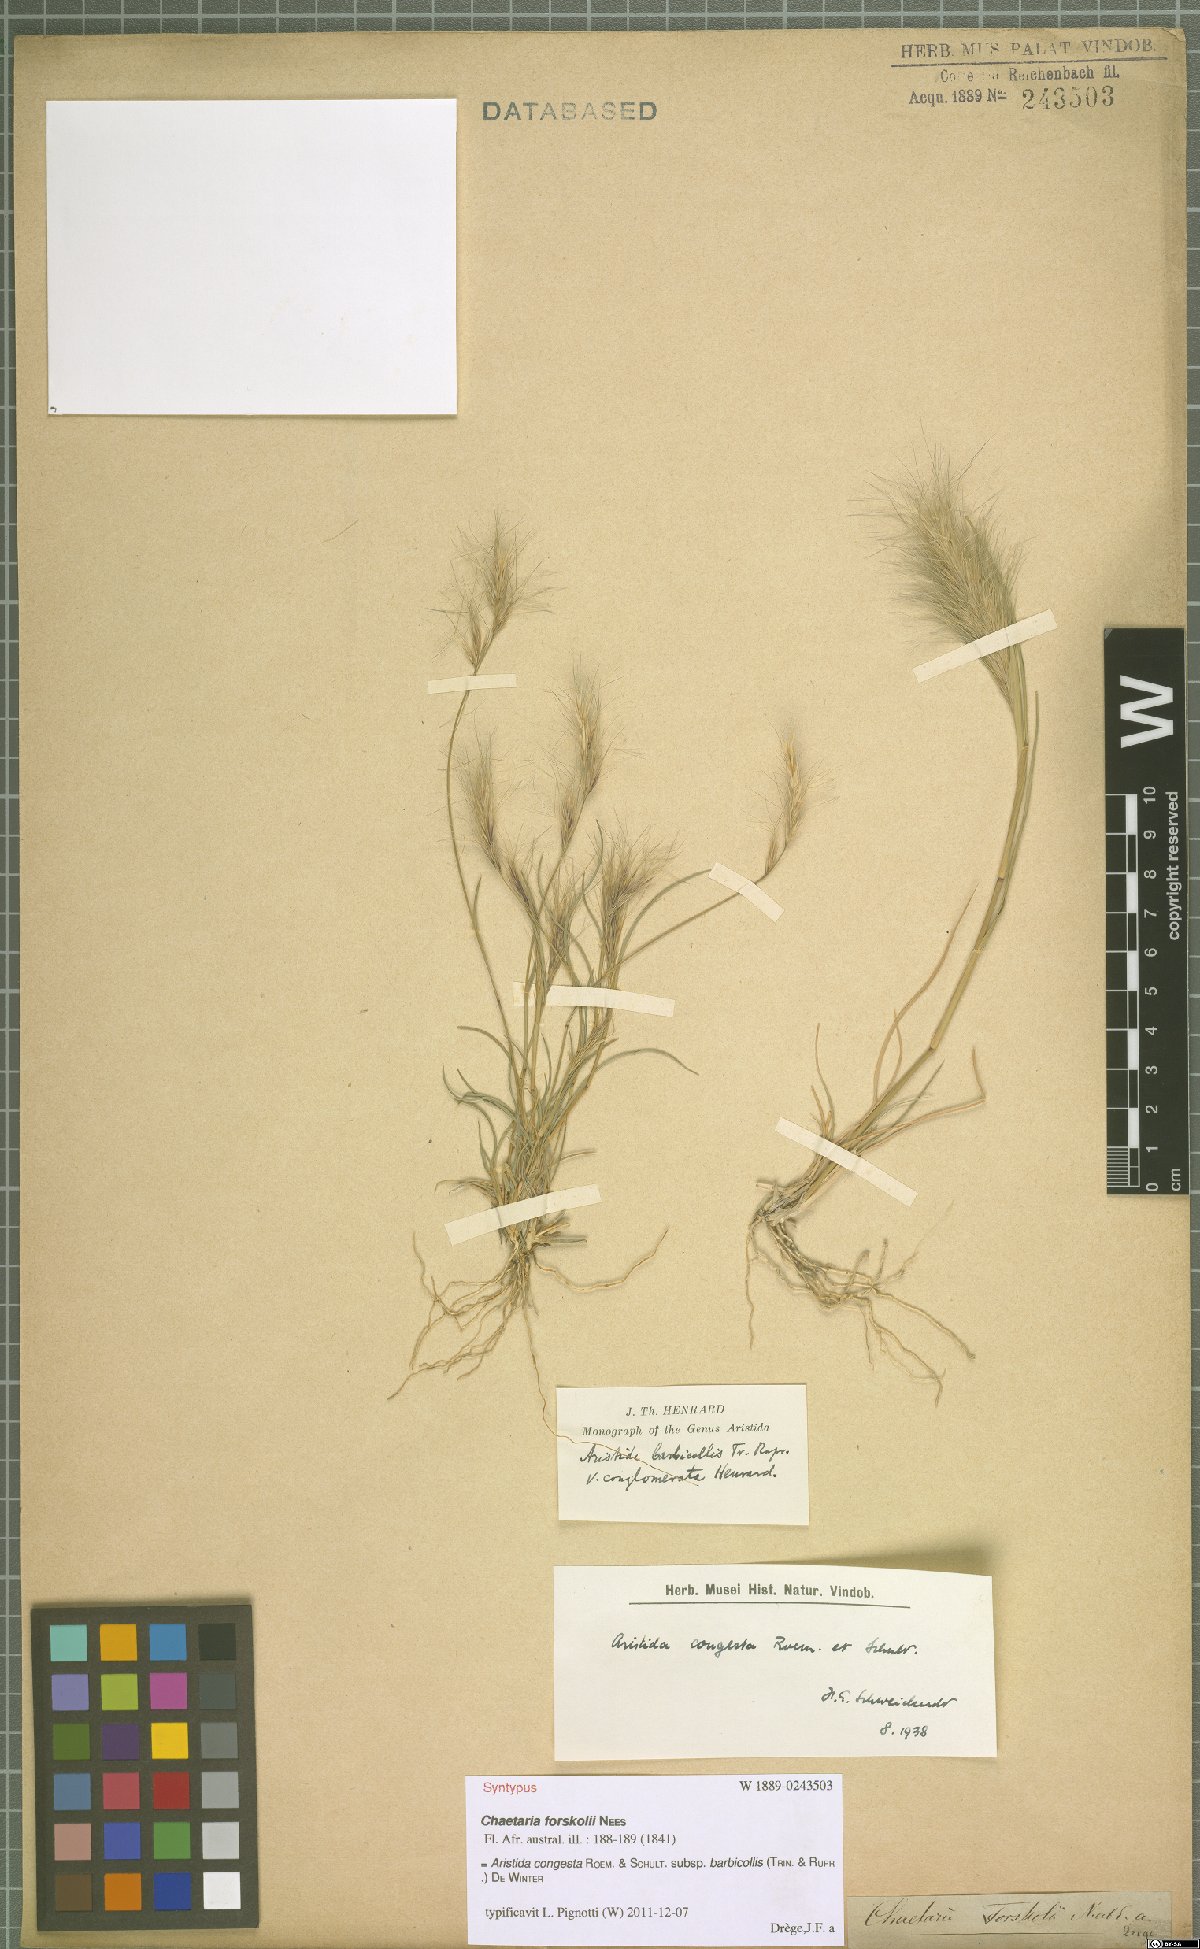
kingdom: Plantae
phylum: Tracheophyta
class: Liliopsida
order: Poales
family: Poaceae
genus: Aristida
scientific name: Aristida barbicollis
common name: Spreading prickle grass
